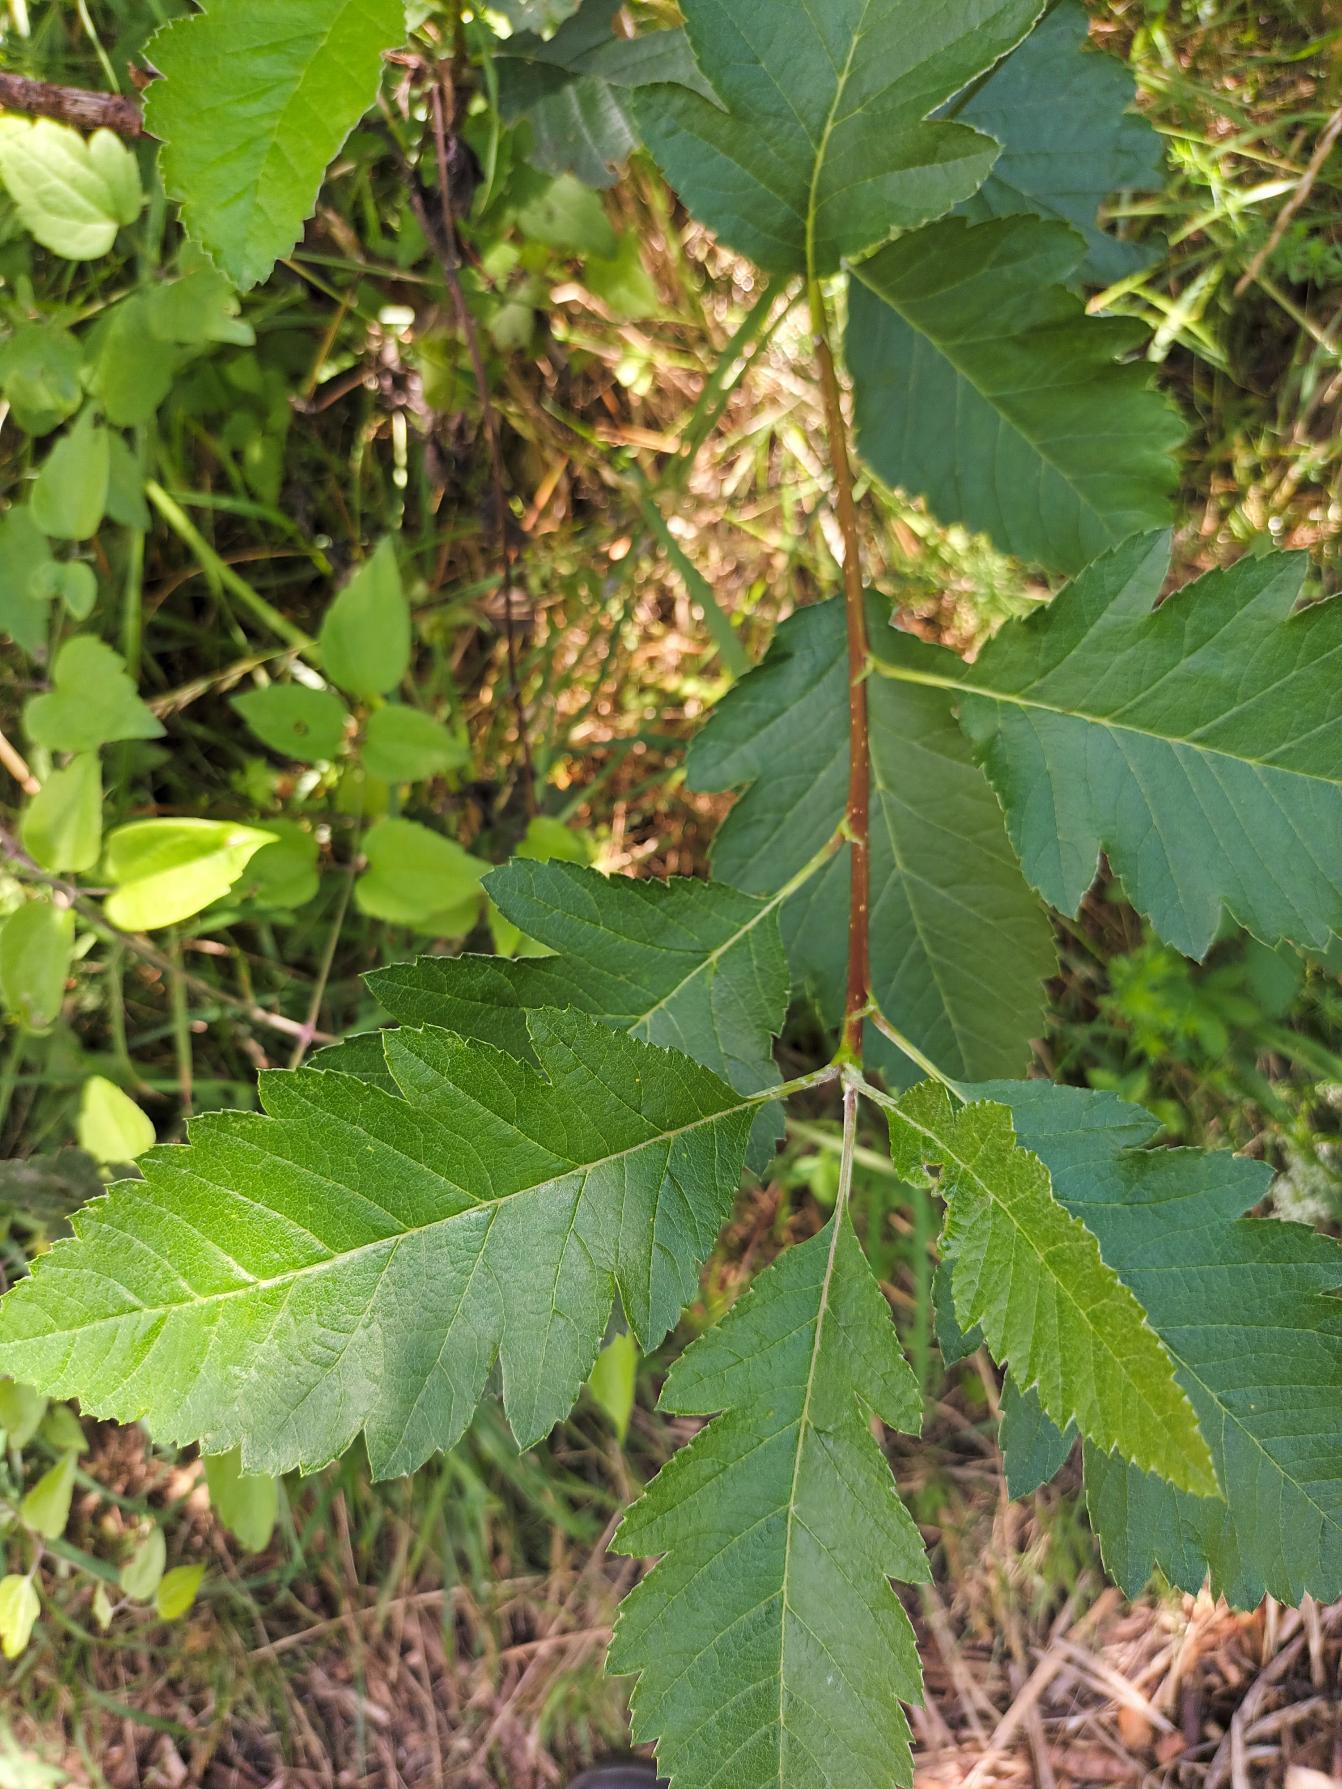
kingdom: Plantae
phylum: Tracheophyta
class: Magnoliopsida
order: Rosales
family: Rosaceae
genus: Hedlundia
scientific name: Hedlundia mougeotii
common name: Pyrenæisk røn
